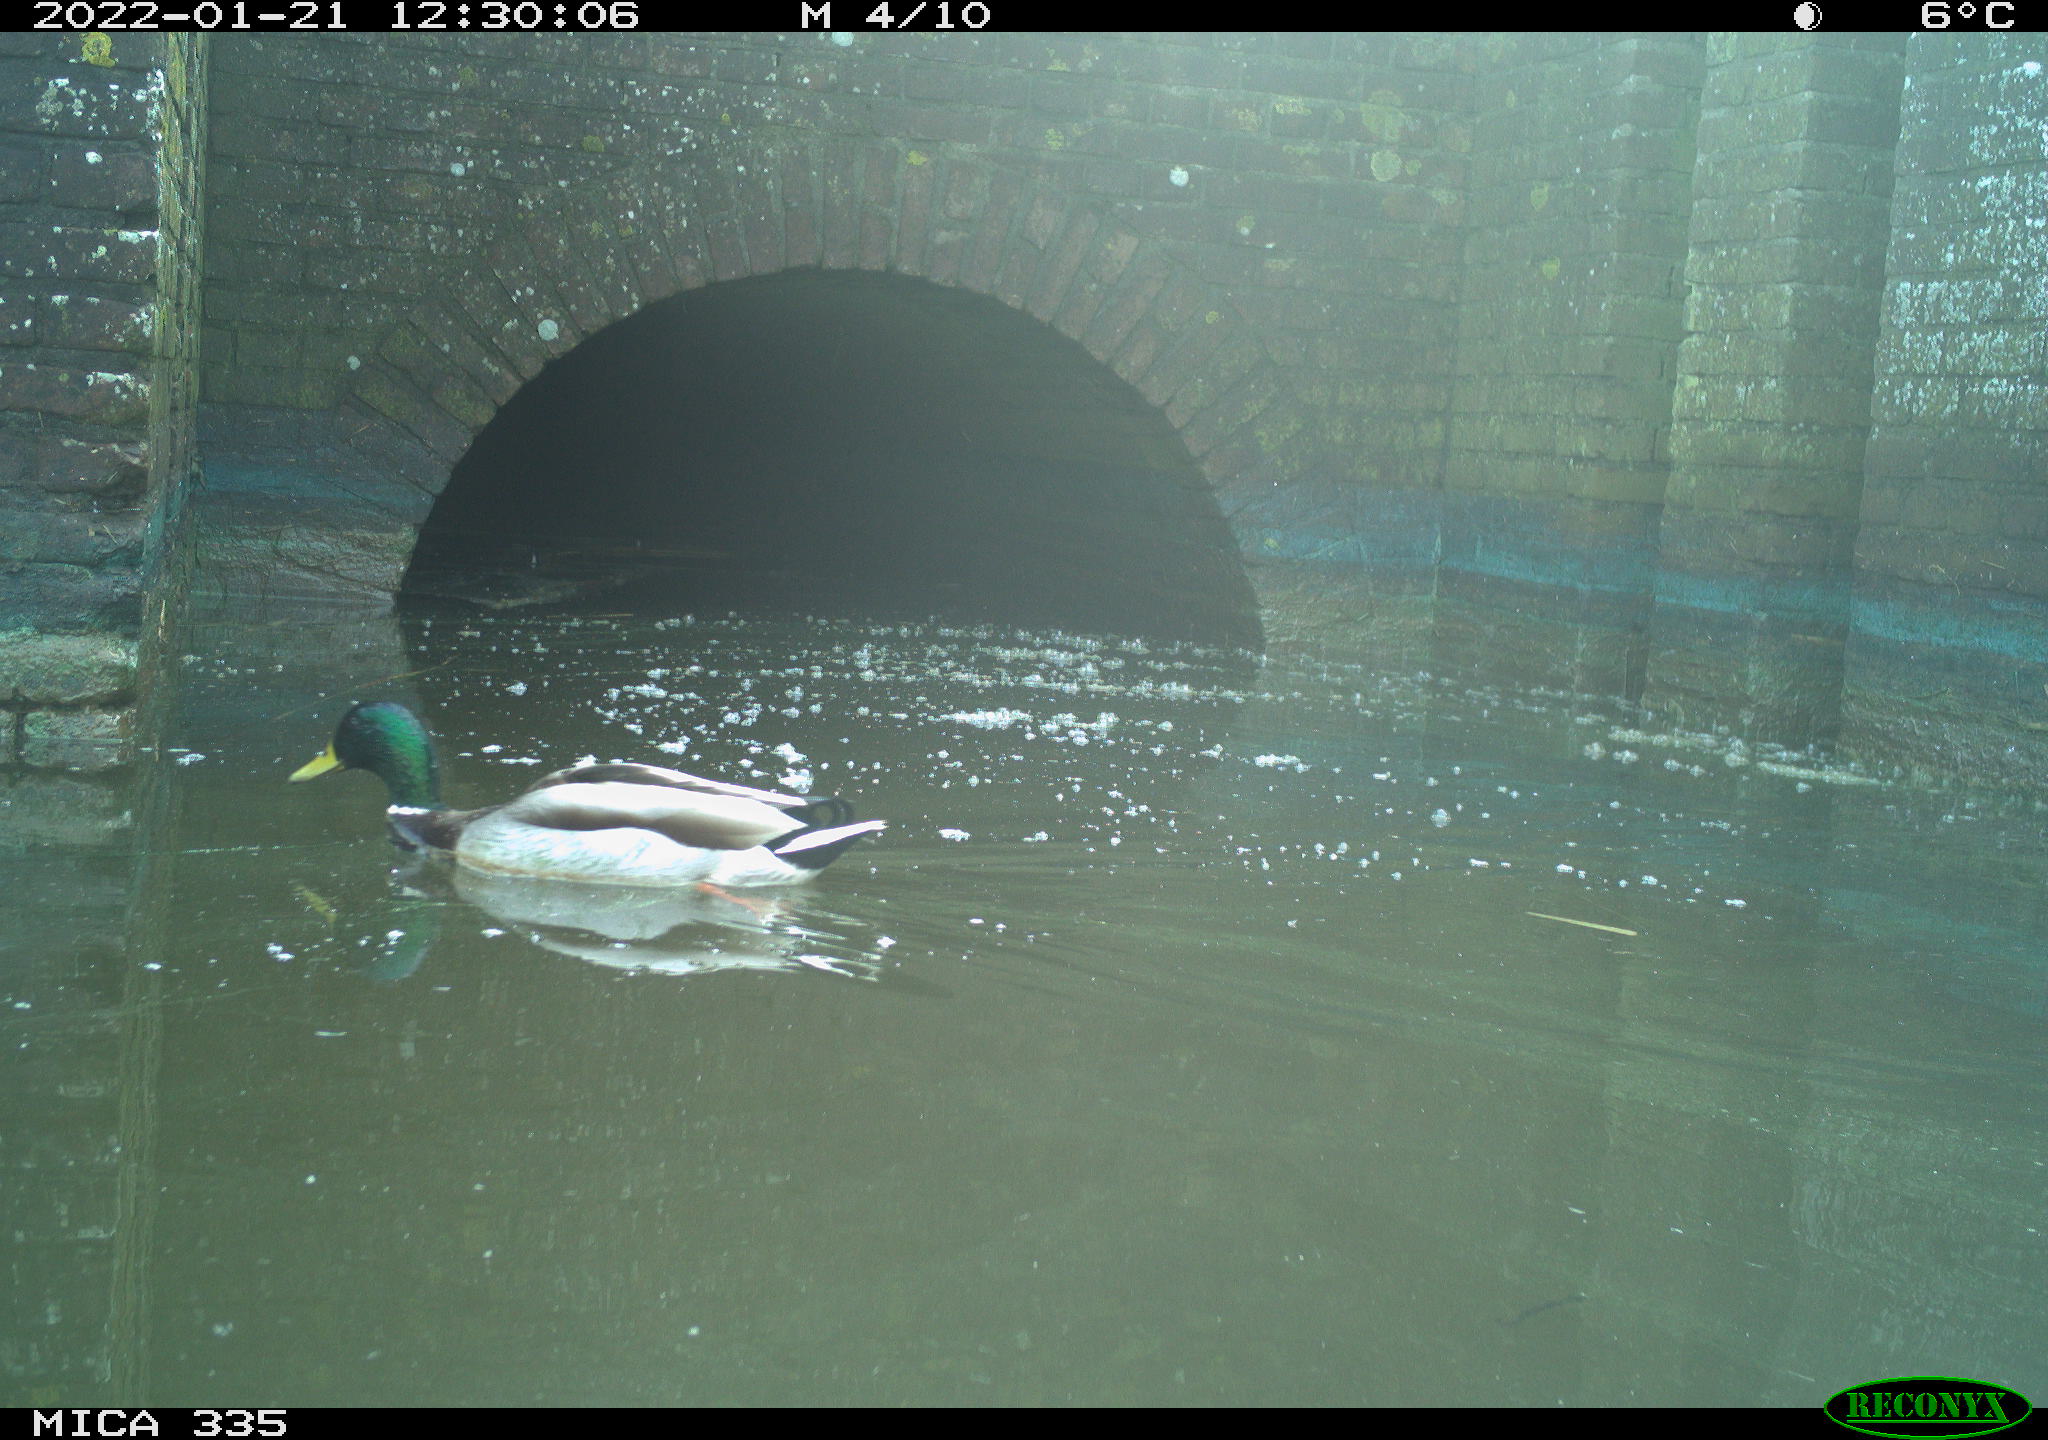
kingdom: Animalia
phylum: Chordata
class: Aves
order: Anseriformes
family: Anatidae
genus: Anas
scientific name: Anas platyrhynchos
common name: Mallard
